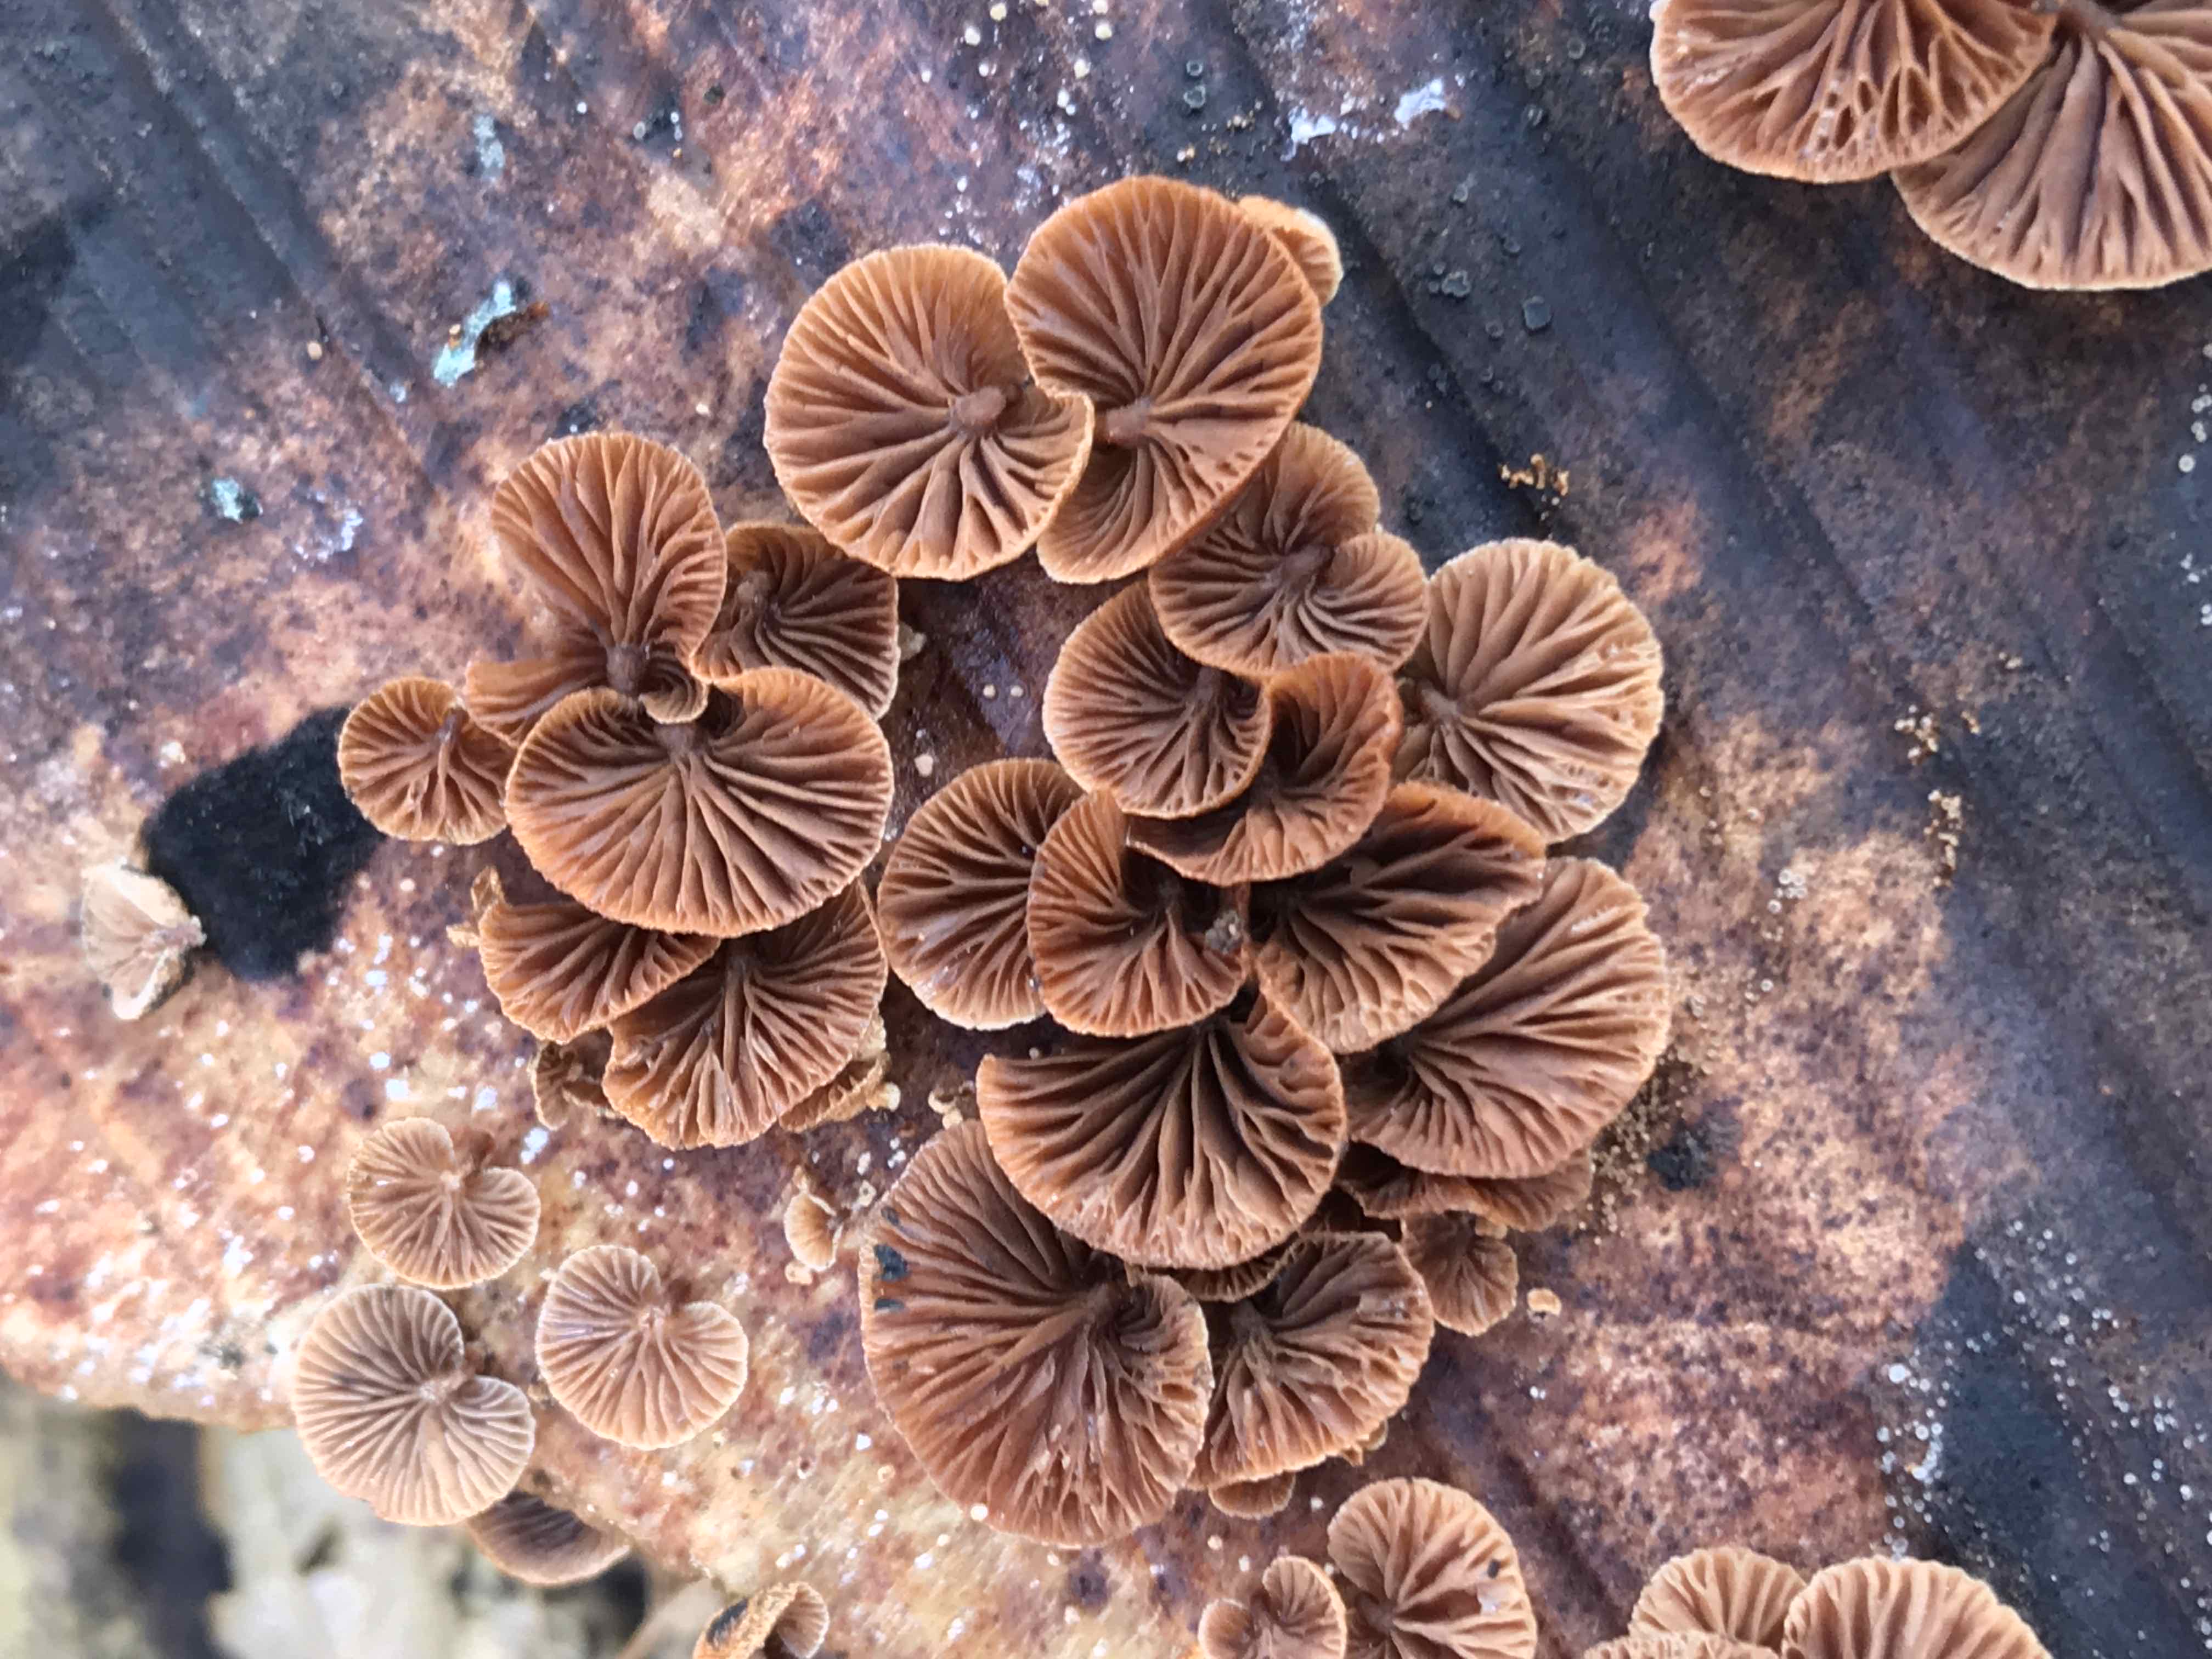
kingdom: Fungi
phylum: Basidiomycota
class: Agaricomycetes
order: Agaricales
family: Strophariaceae
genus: Deconica
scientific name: Deconica horizontalis
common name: ved-stråhat
